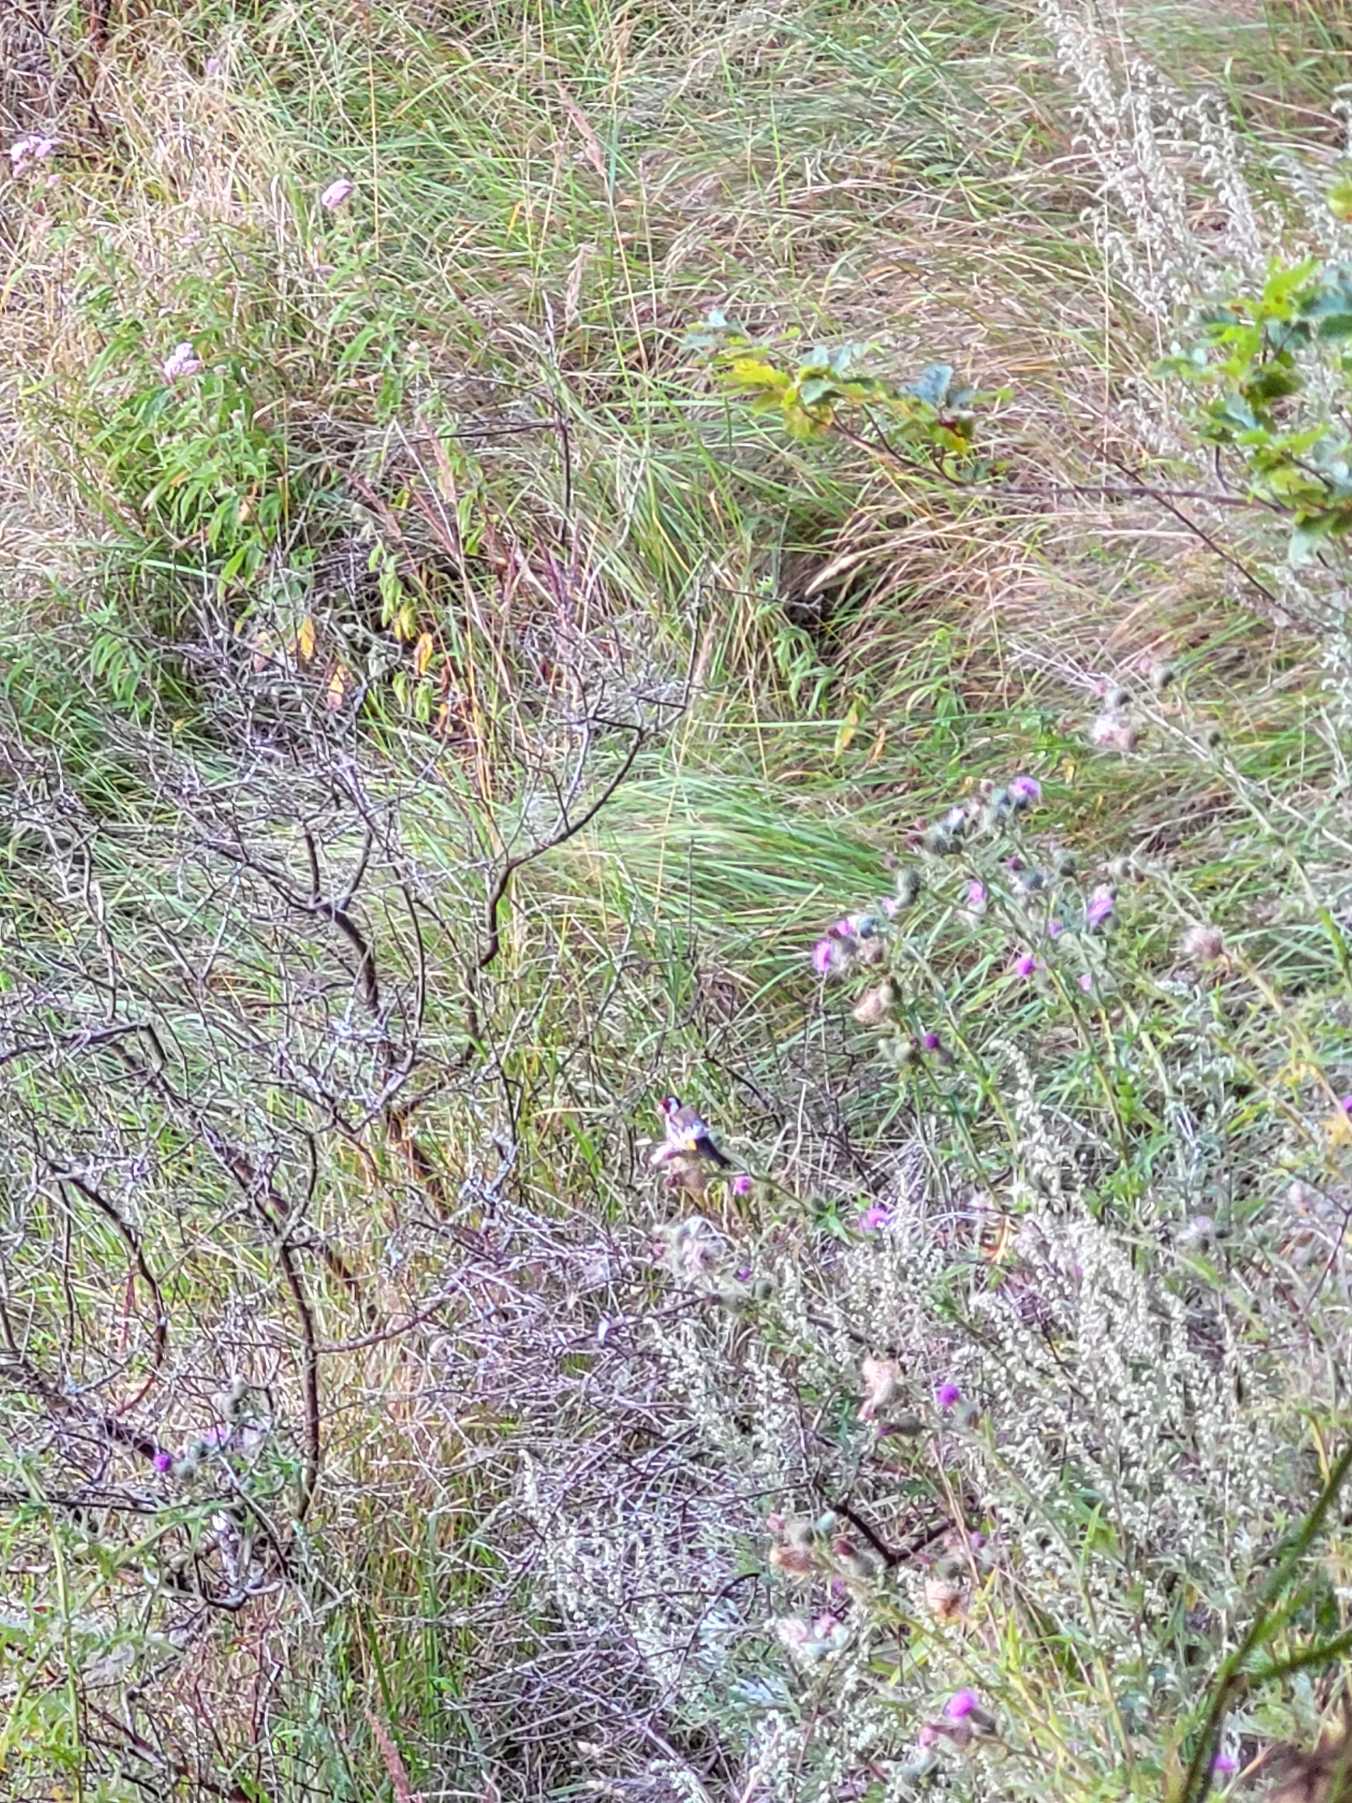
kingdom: Animalia
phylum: Chordata
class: Aves
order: Passeriformes
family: Fringillidae
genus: Carduelis
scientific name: Carduelis carduelis
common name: Stillits
